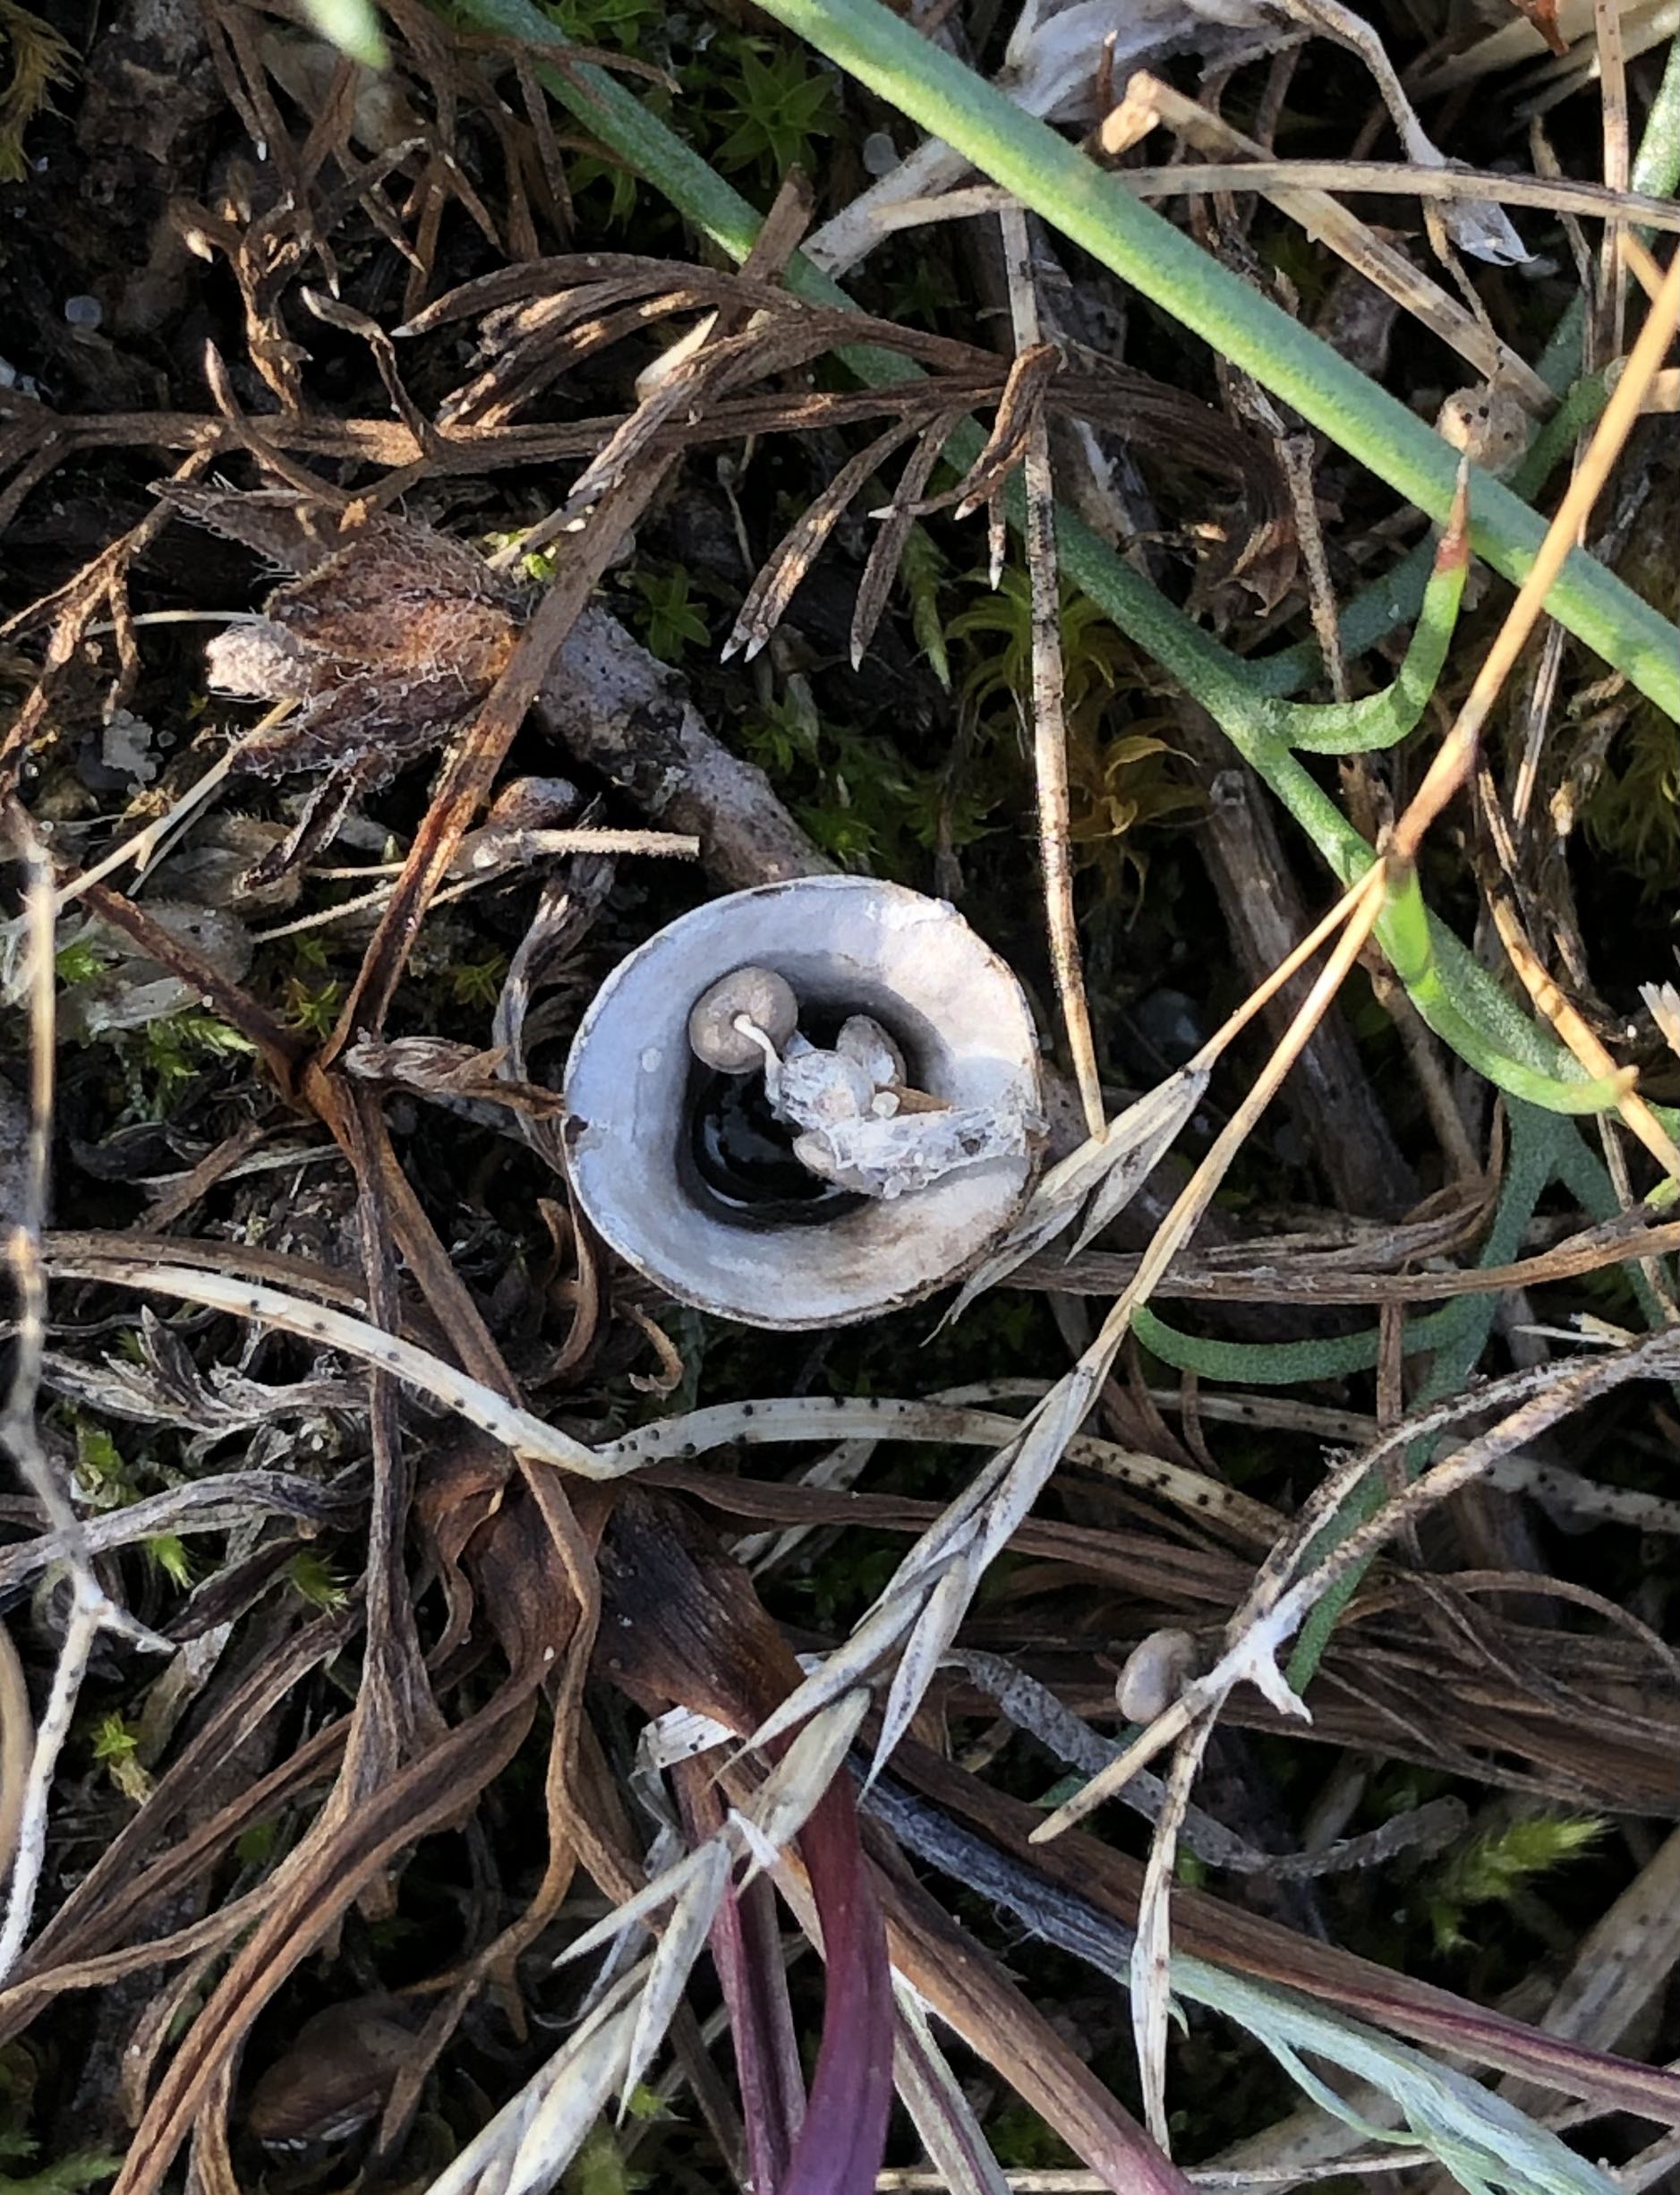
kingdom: Fungi
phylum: Basidiomycota
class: Agaricomycetes
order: Agaricales
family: Agaricaceae
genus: Cyathus
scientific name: Cyathus olla
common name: klokke-redesvamp
